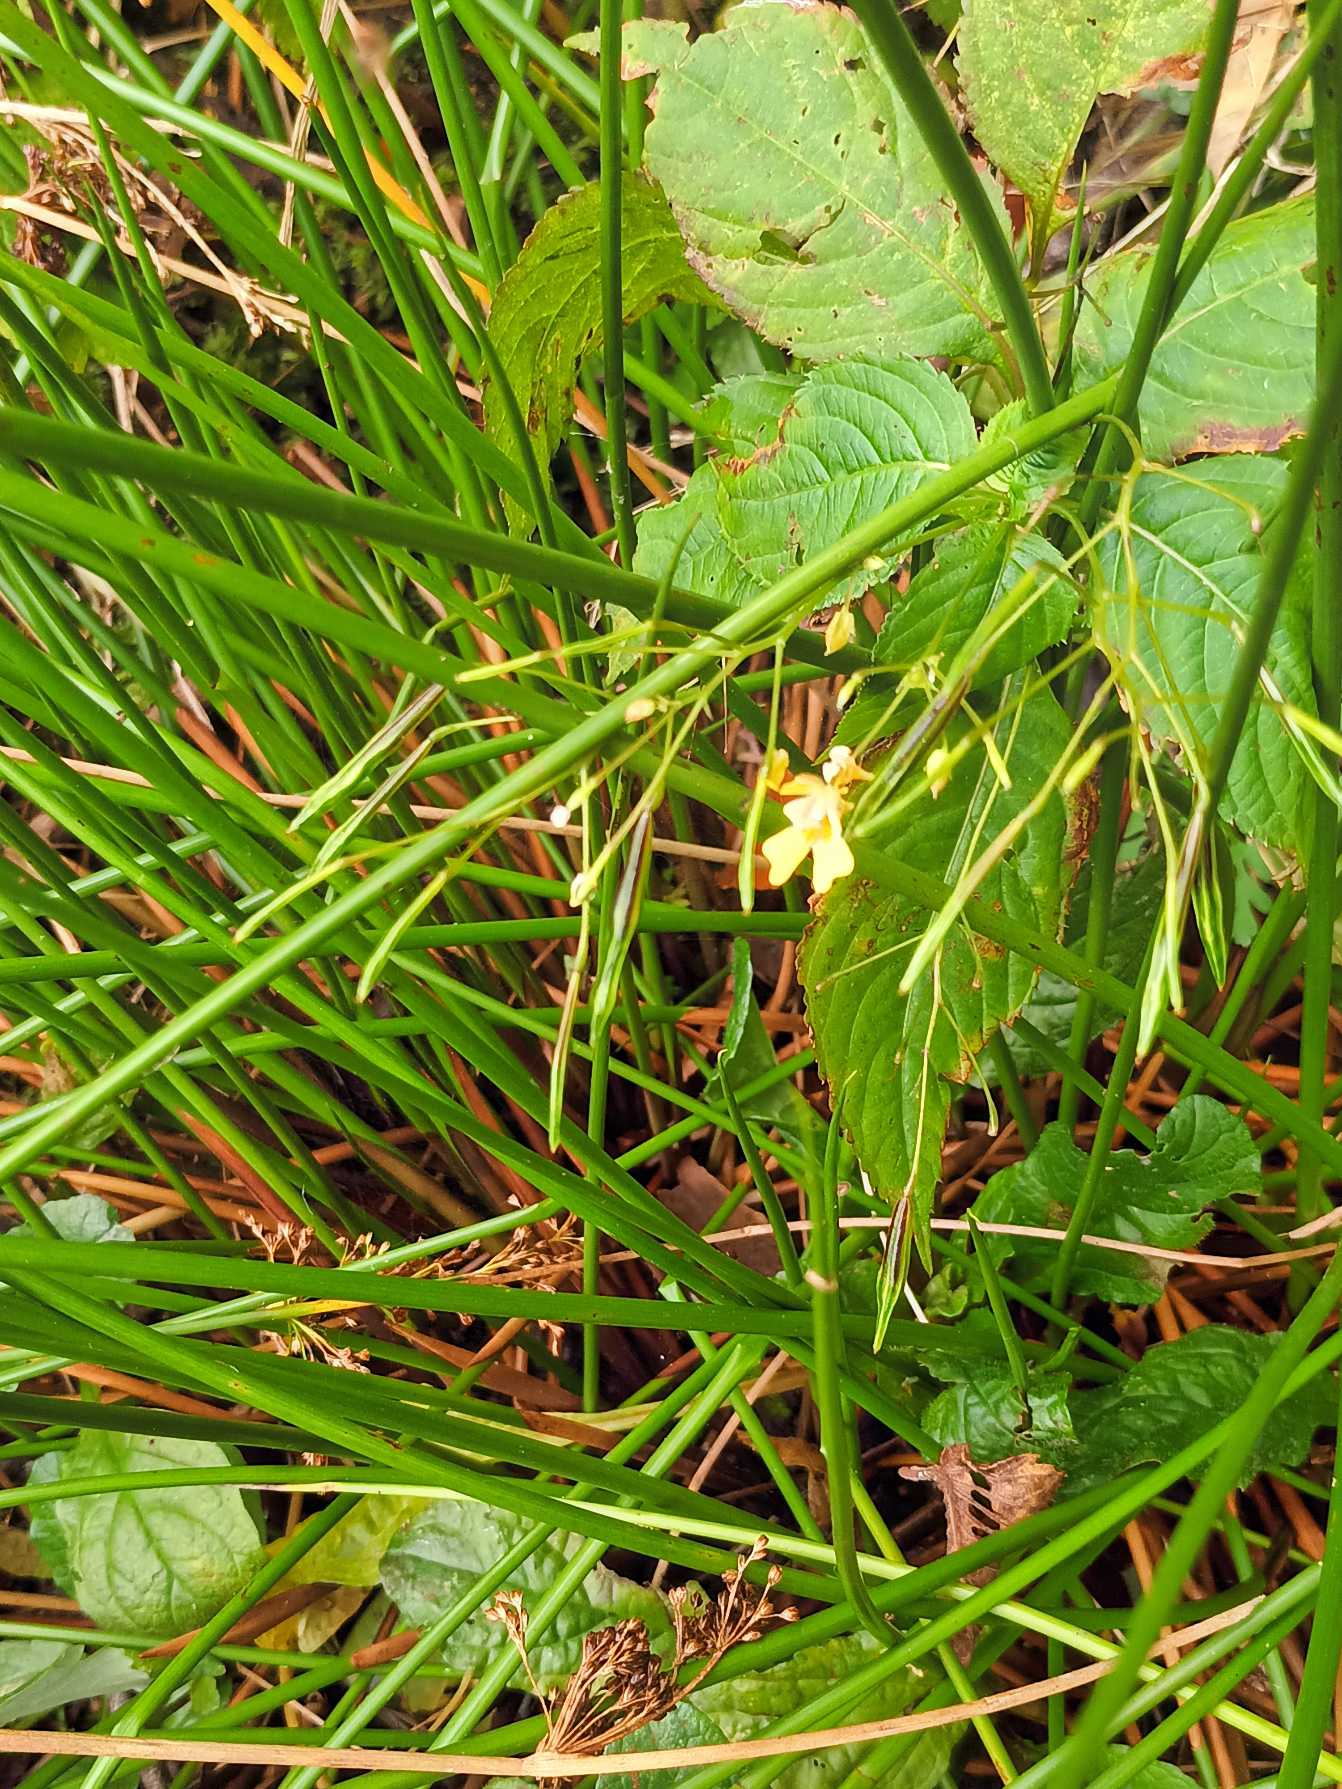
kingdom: Plantae
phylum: Tracheophyta
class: Magnoliopsida
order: Ericales
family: Balsaminaceae
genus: Impatiens
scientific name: Impatiens parviflora
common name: Småblomstret balsamin
